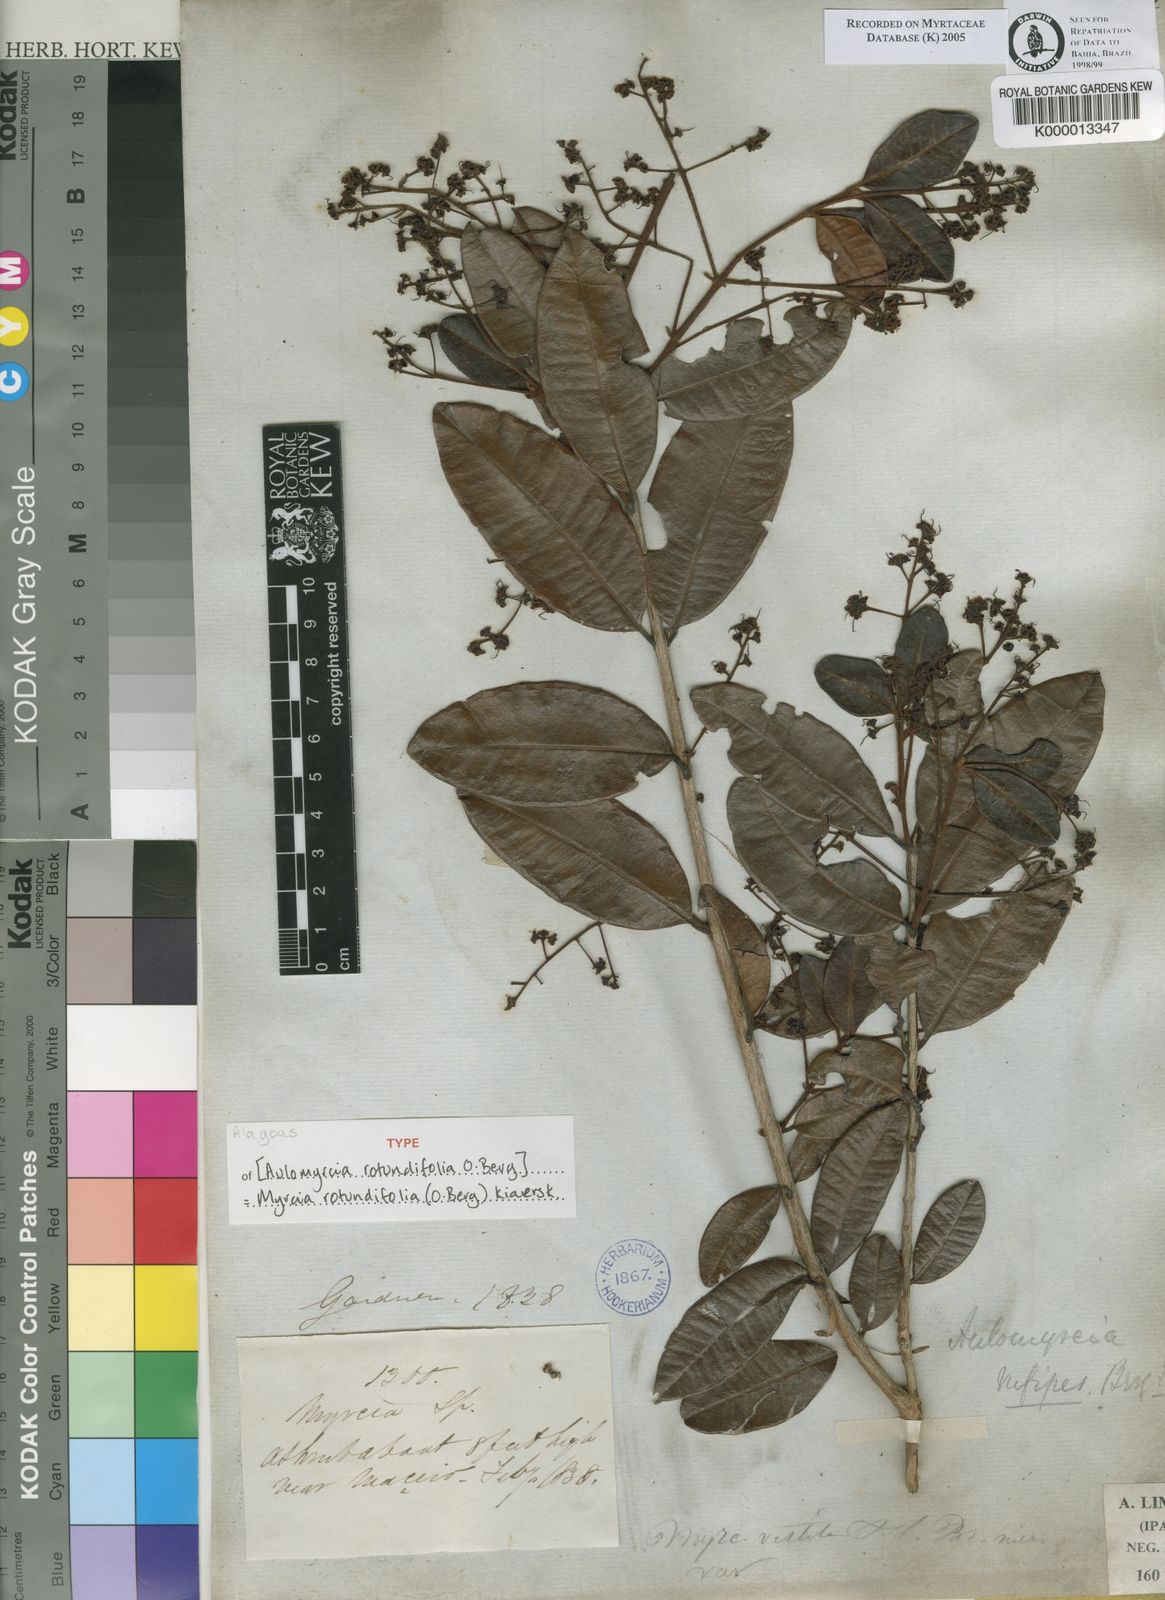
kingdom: Plantae
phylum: Tracheophyta
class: Magnoliopsida
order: Myrtales
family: Myrtaceae
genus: Myrcia
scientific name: Myrcia vestita
